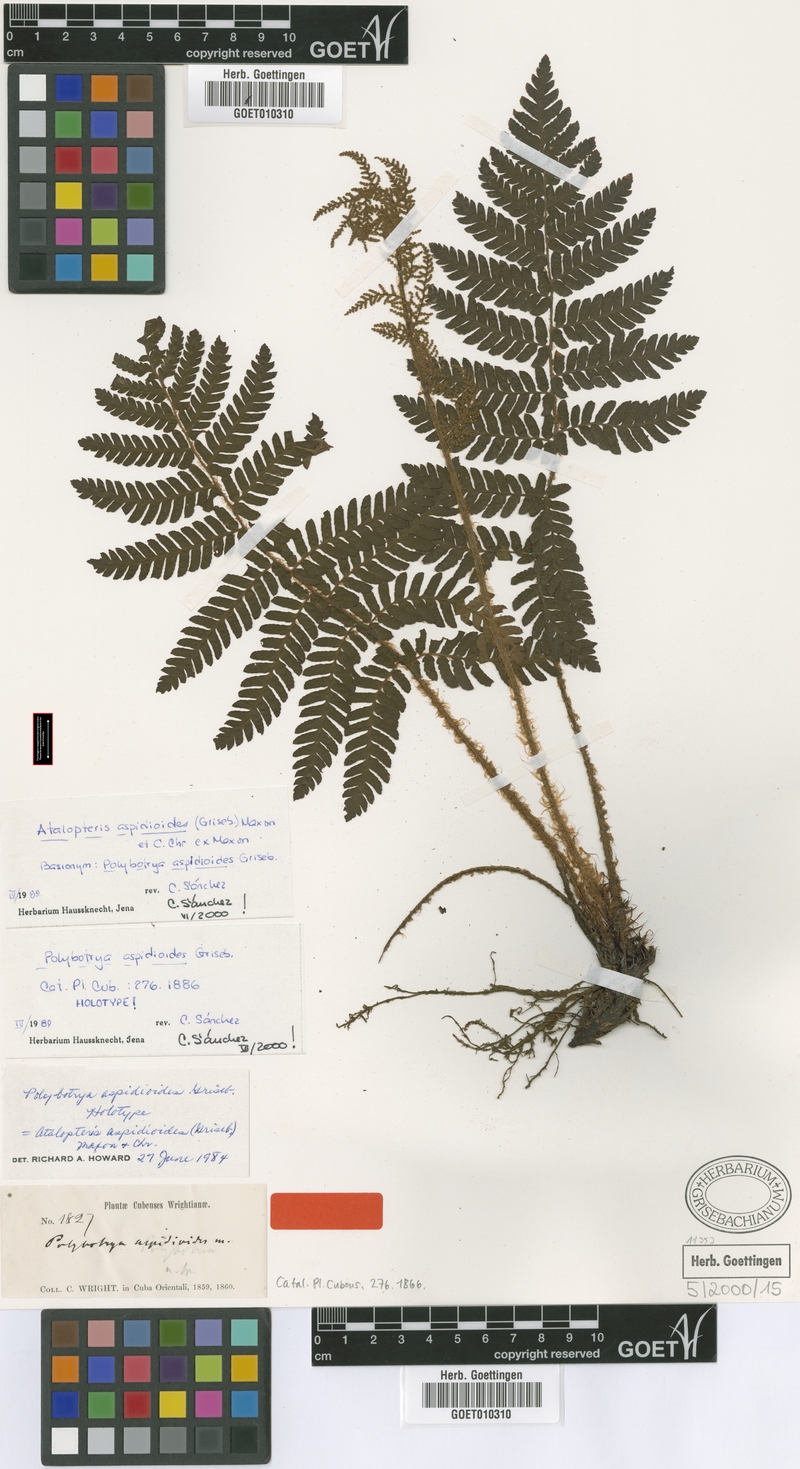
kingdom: Plantae
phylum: Tracheophyta
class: Polypodiopsida
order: Polypodiales
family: Dryopteridaceae
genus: Atalopteris
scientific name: Atalopteris aspidioides
